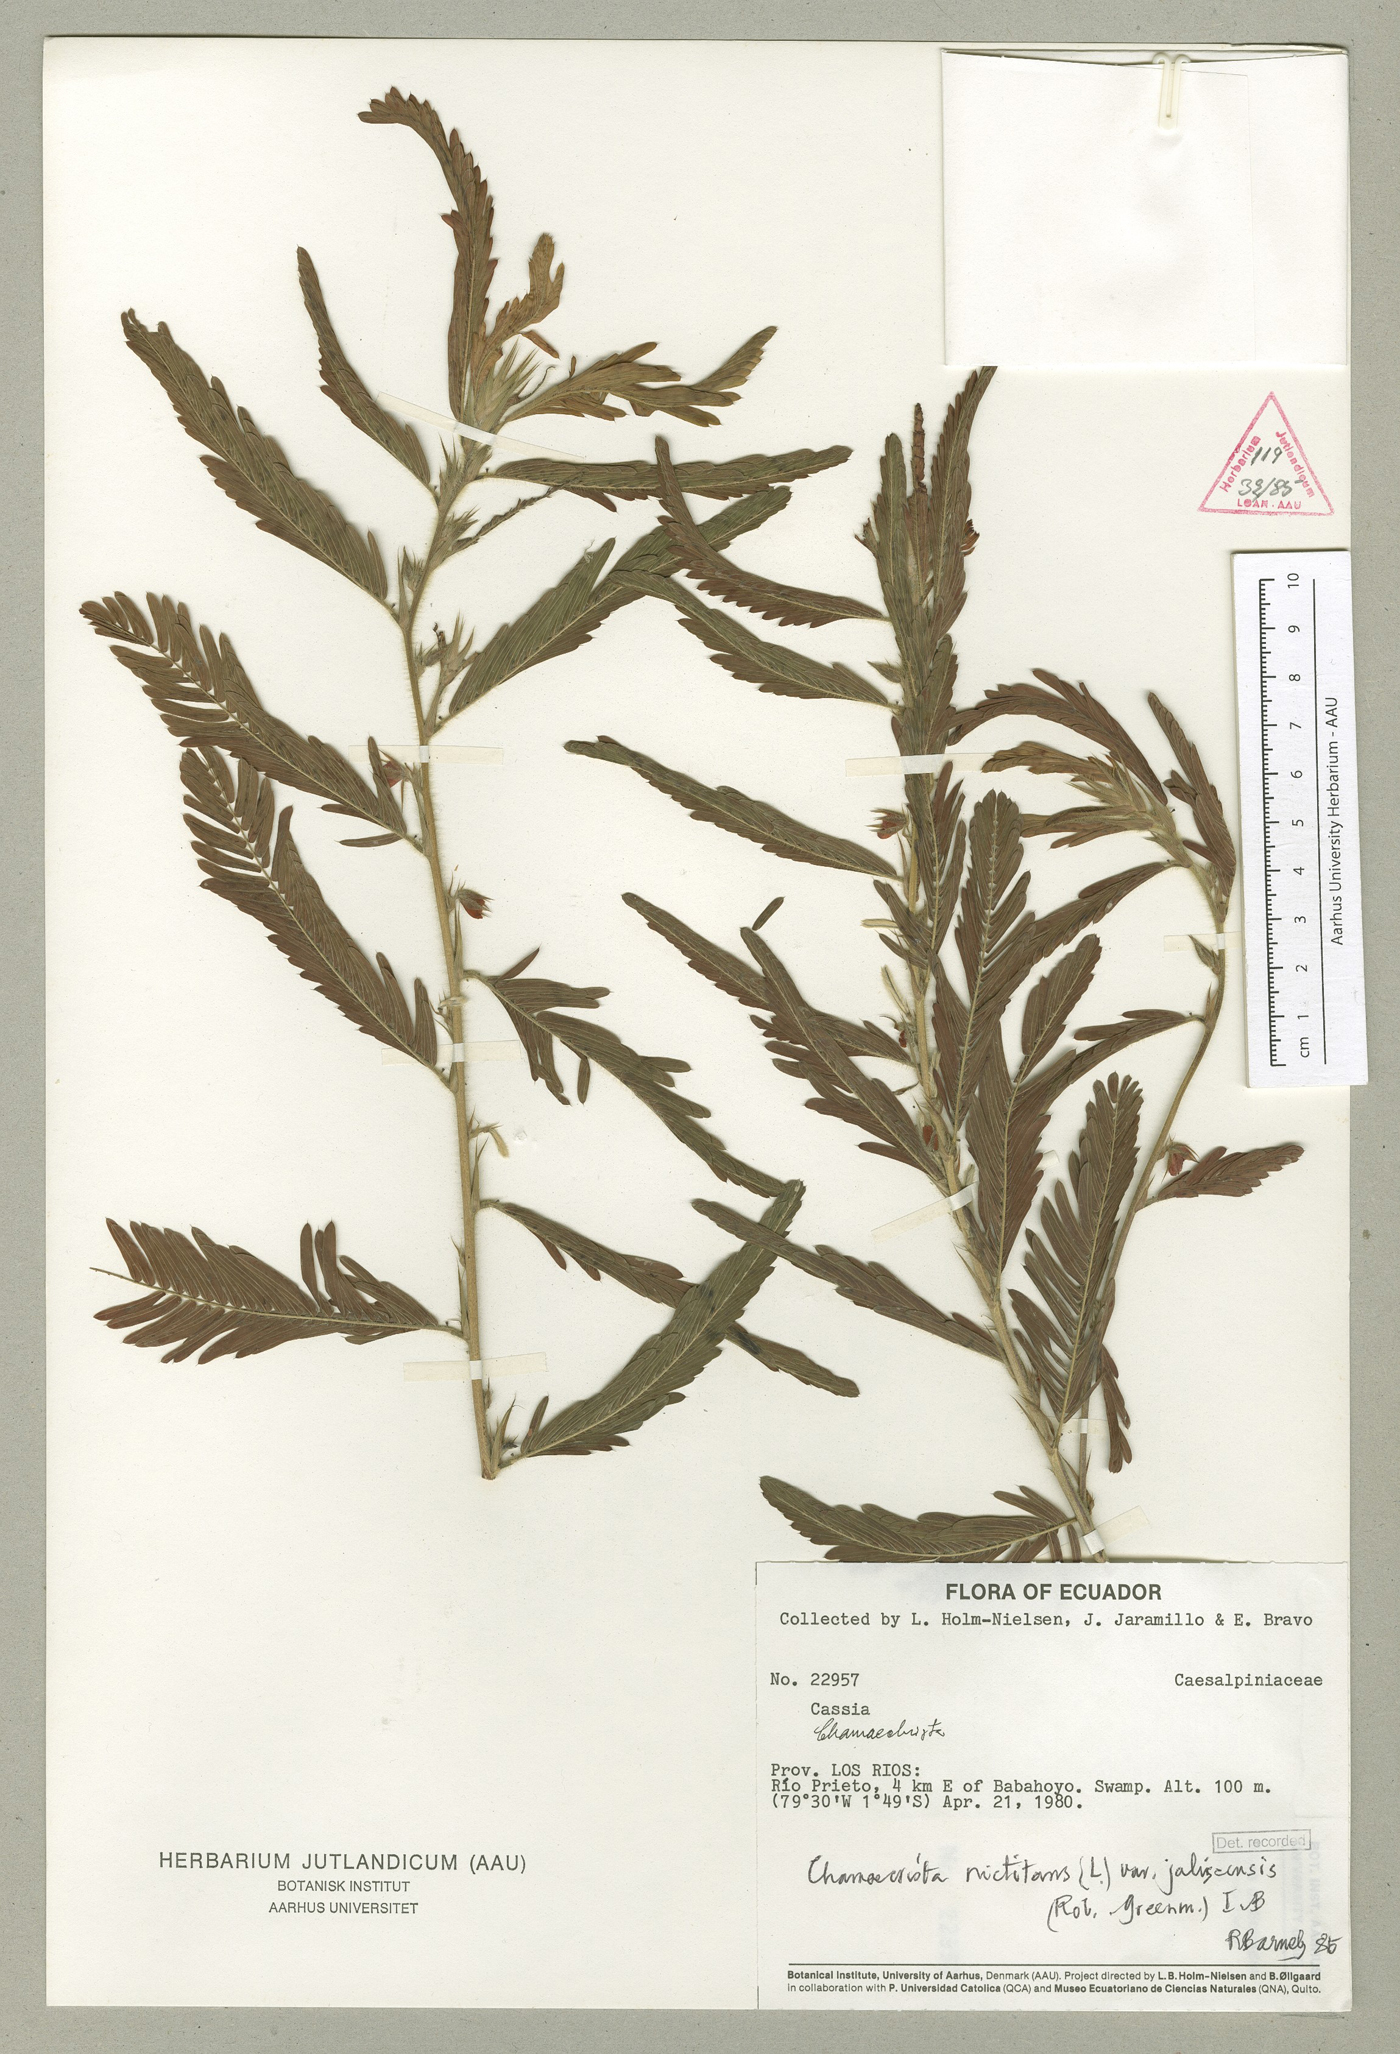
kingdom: Plantae
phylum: Tracheophyta
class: Magnoliopsida
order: Fabales
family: Fabaceae
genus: Chamaecrista
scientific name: Chamaecrista nictitans
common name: Sensitive cassia
